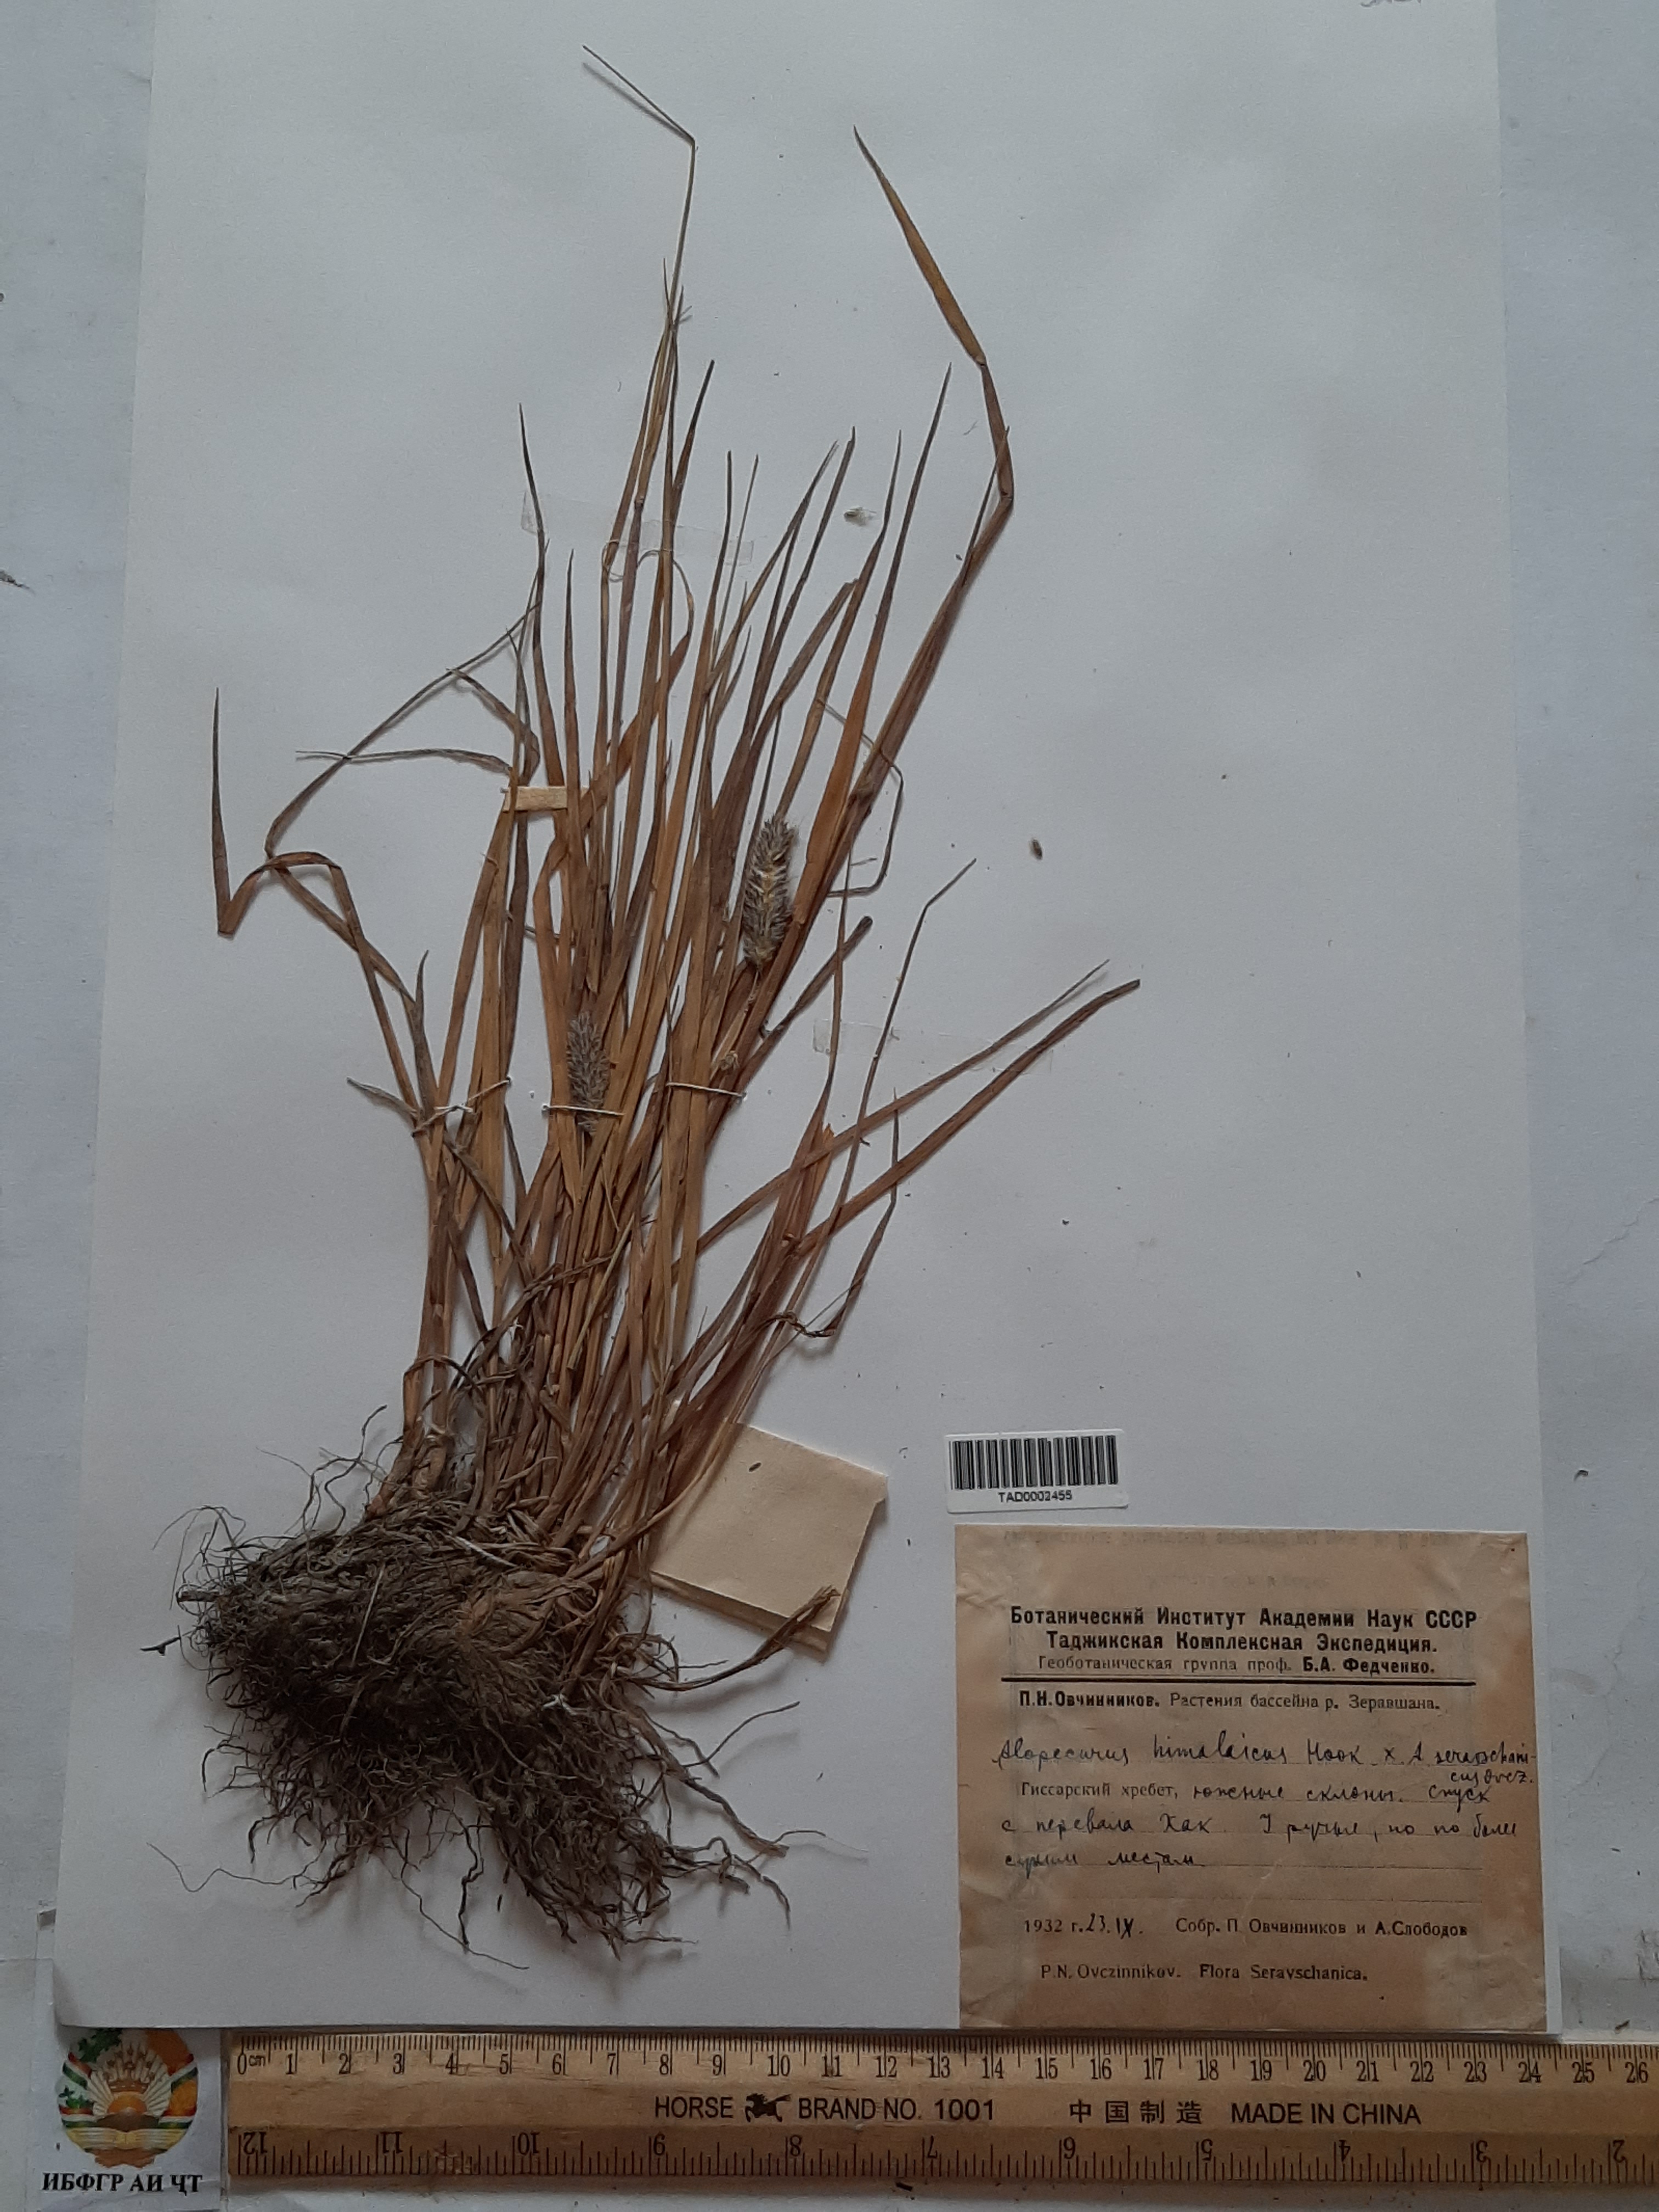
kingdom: Plantae
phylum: Tracheophyta
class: Liliopsida
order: Poales
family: Poaceae
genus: Alopecurus
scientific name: Alopecurus himalaicus
